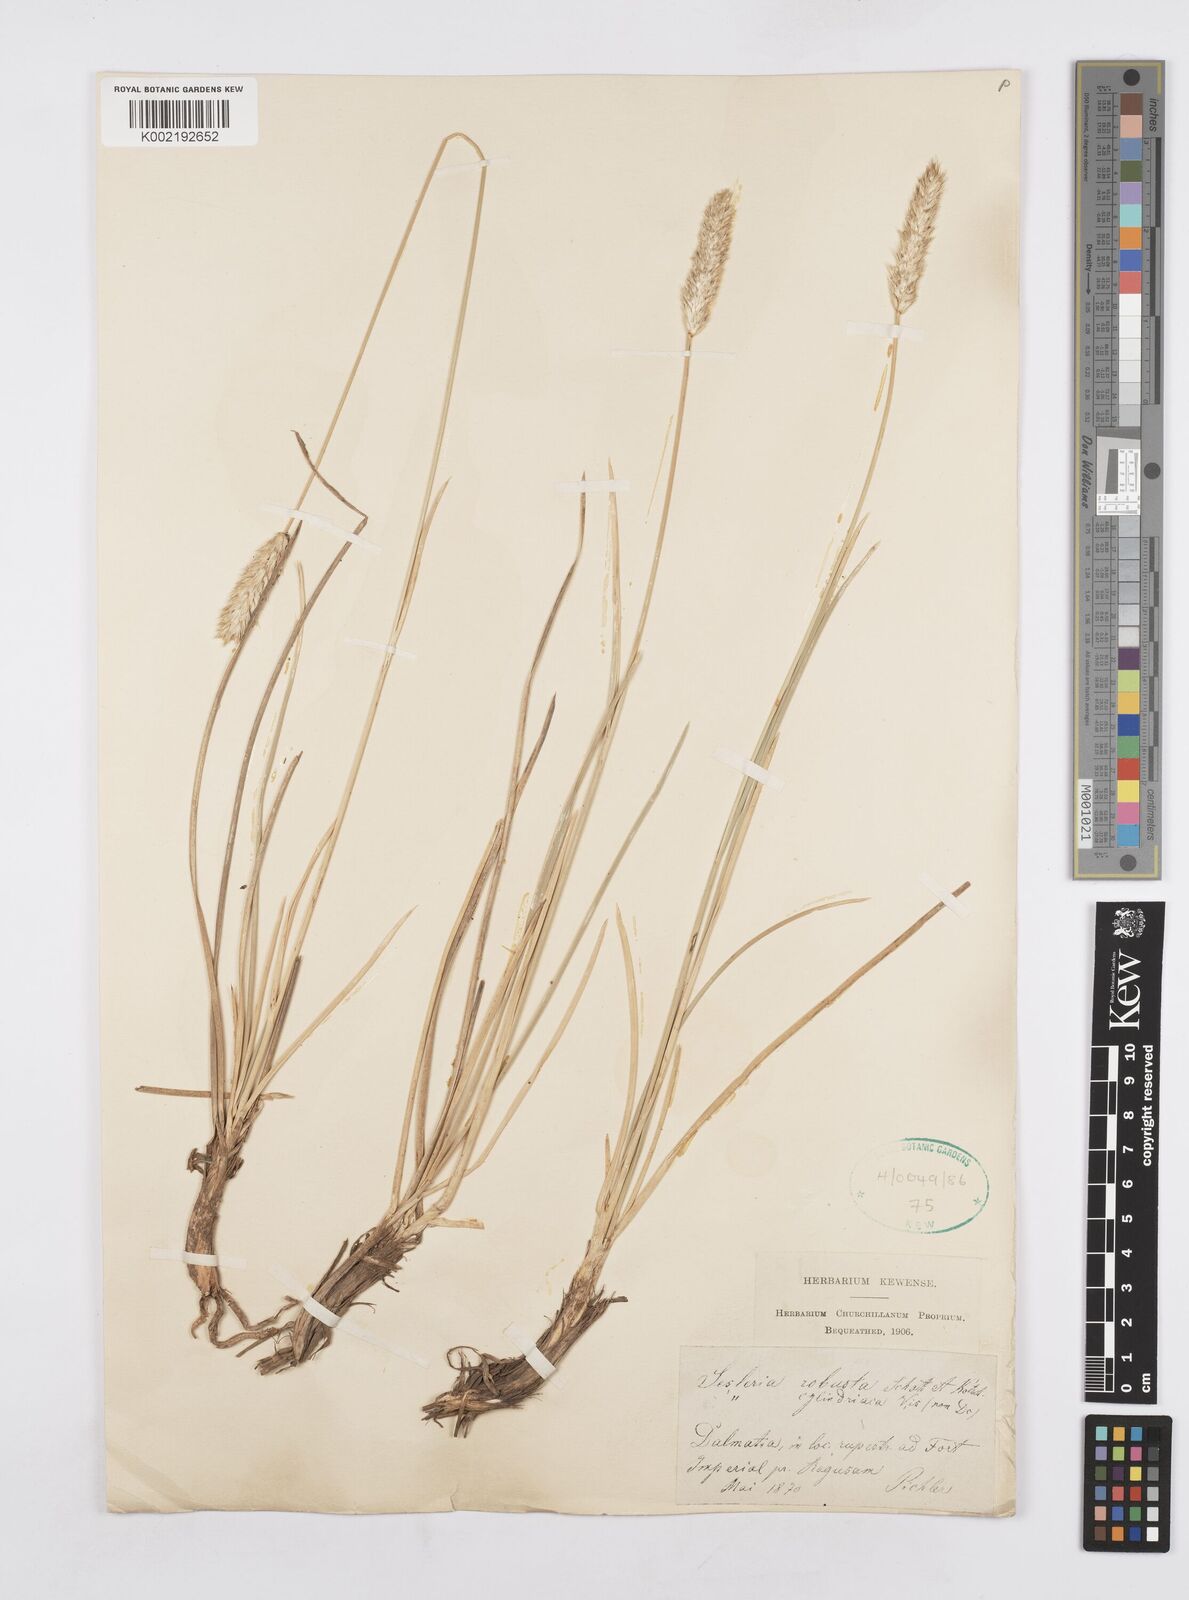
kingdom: Plantae
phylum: Tracheophyta
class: Liliopsida
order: Poales
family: Poaceae
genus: Sesleria
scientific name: Sesleria robusta
